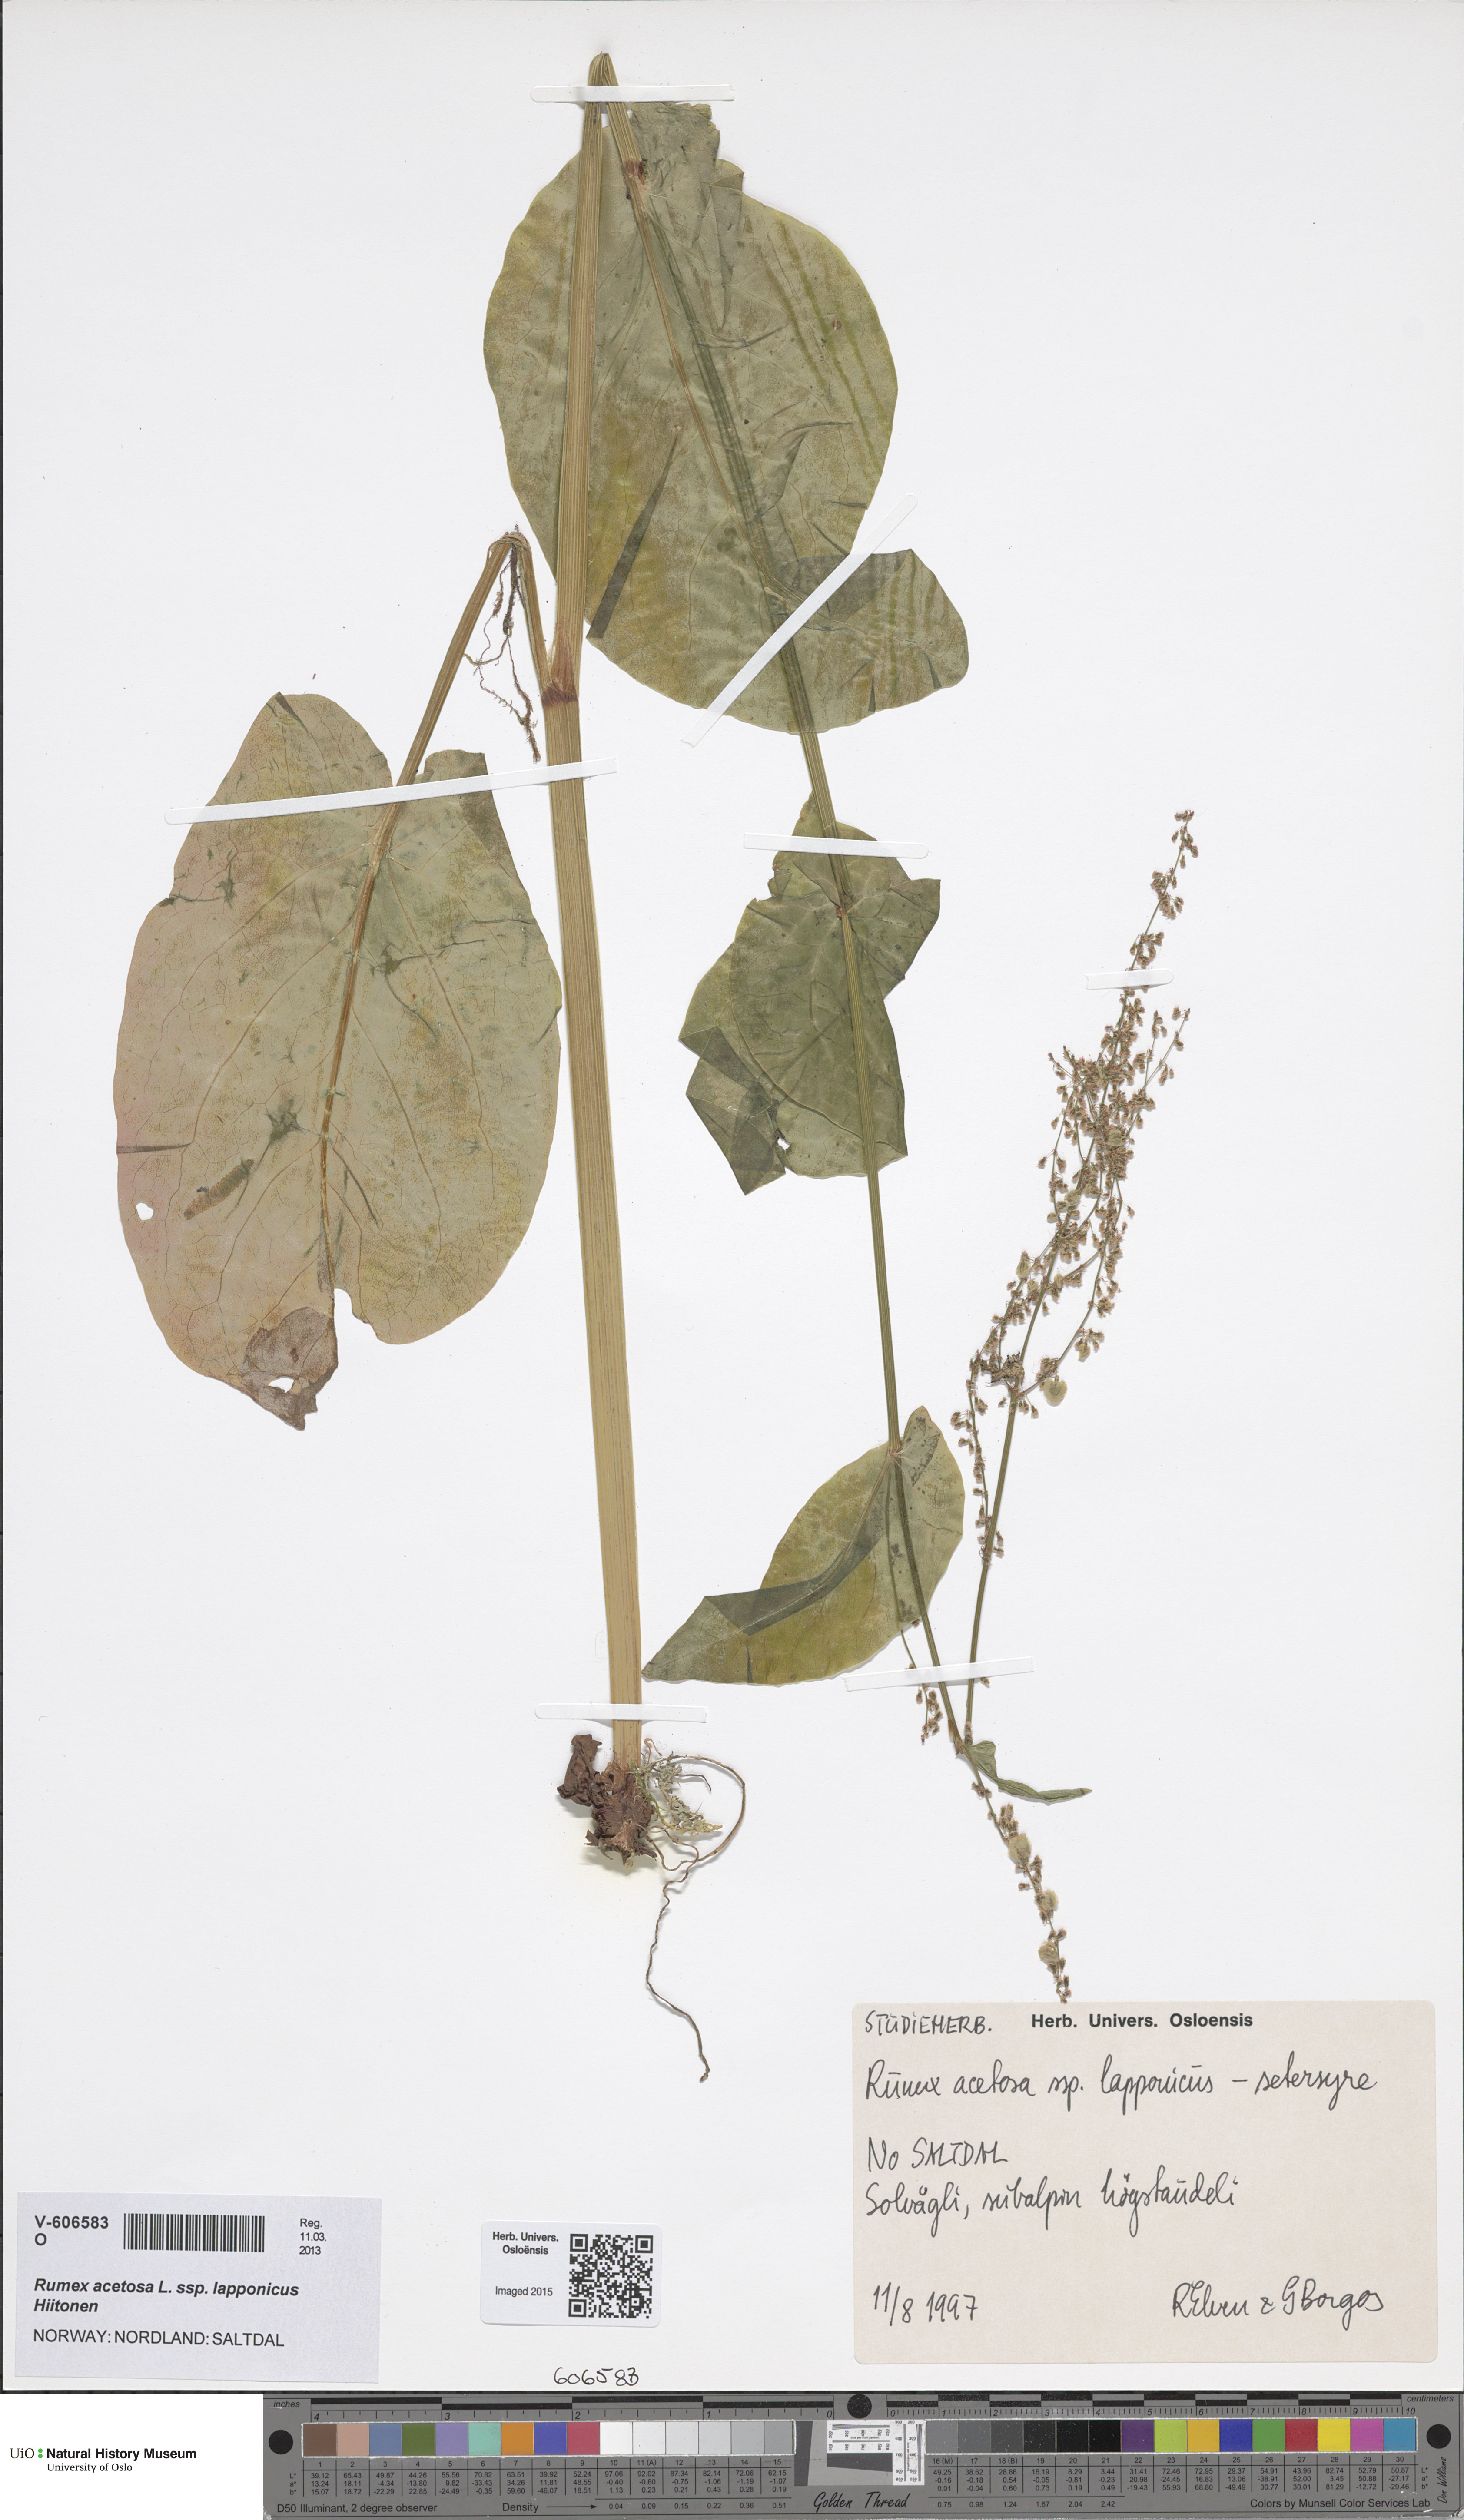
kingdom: Plantae
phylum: Tracheophyta
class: Magnoliopsida
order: Caryophyllales
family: Polygonaceae
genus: Rumex
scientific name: Rumex lapponicus
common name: Lapland mountain sorrel
